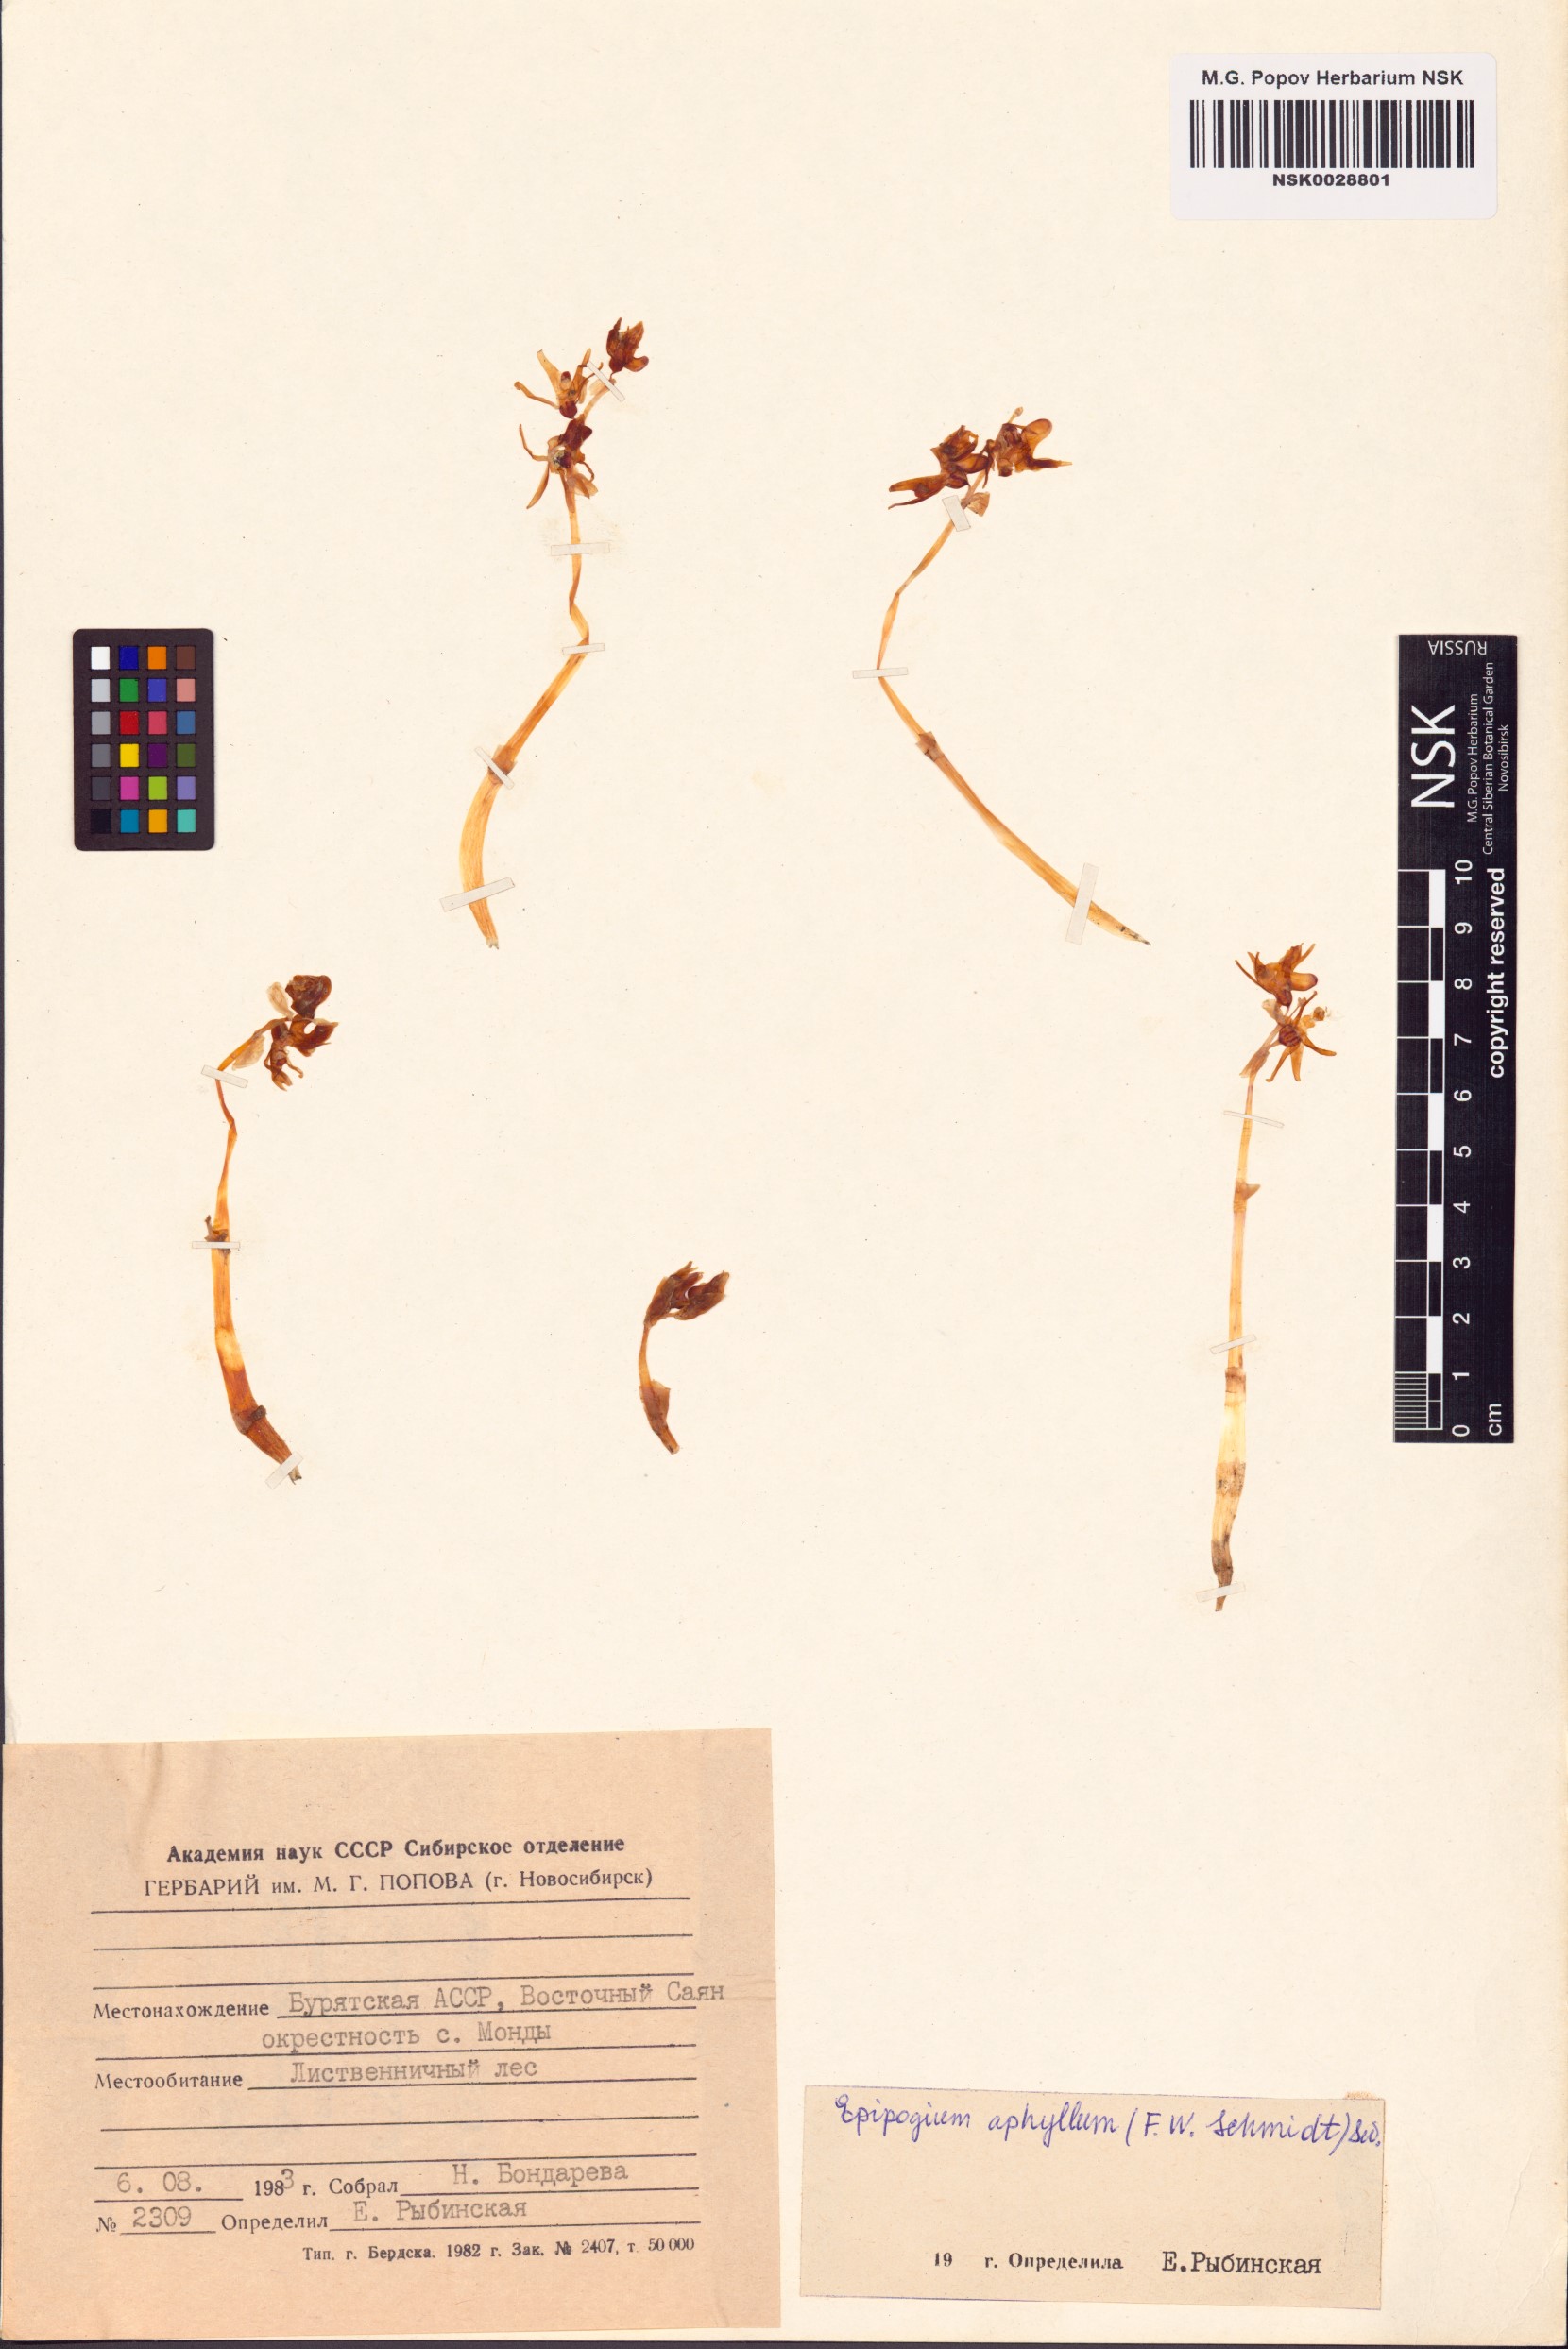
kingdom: Plantae
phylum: Tracheophyta
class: Liliopsida
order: Asparagales
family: Orchidaceae
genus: Epipogium
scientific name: Epipogium aphyllum
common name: Ghost orchid
